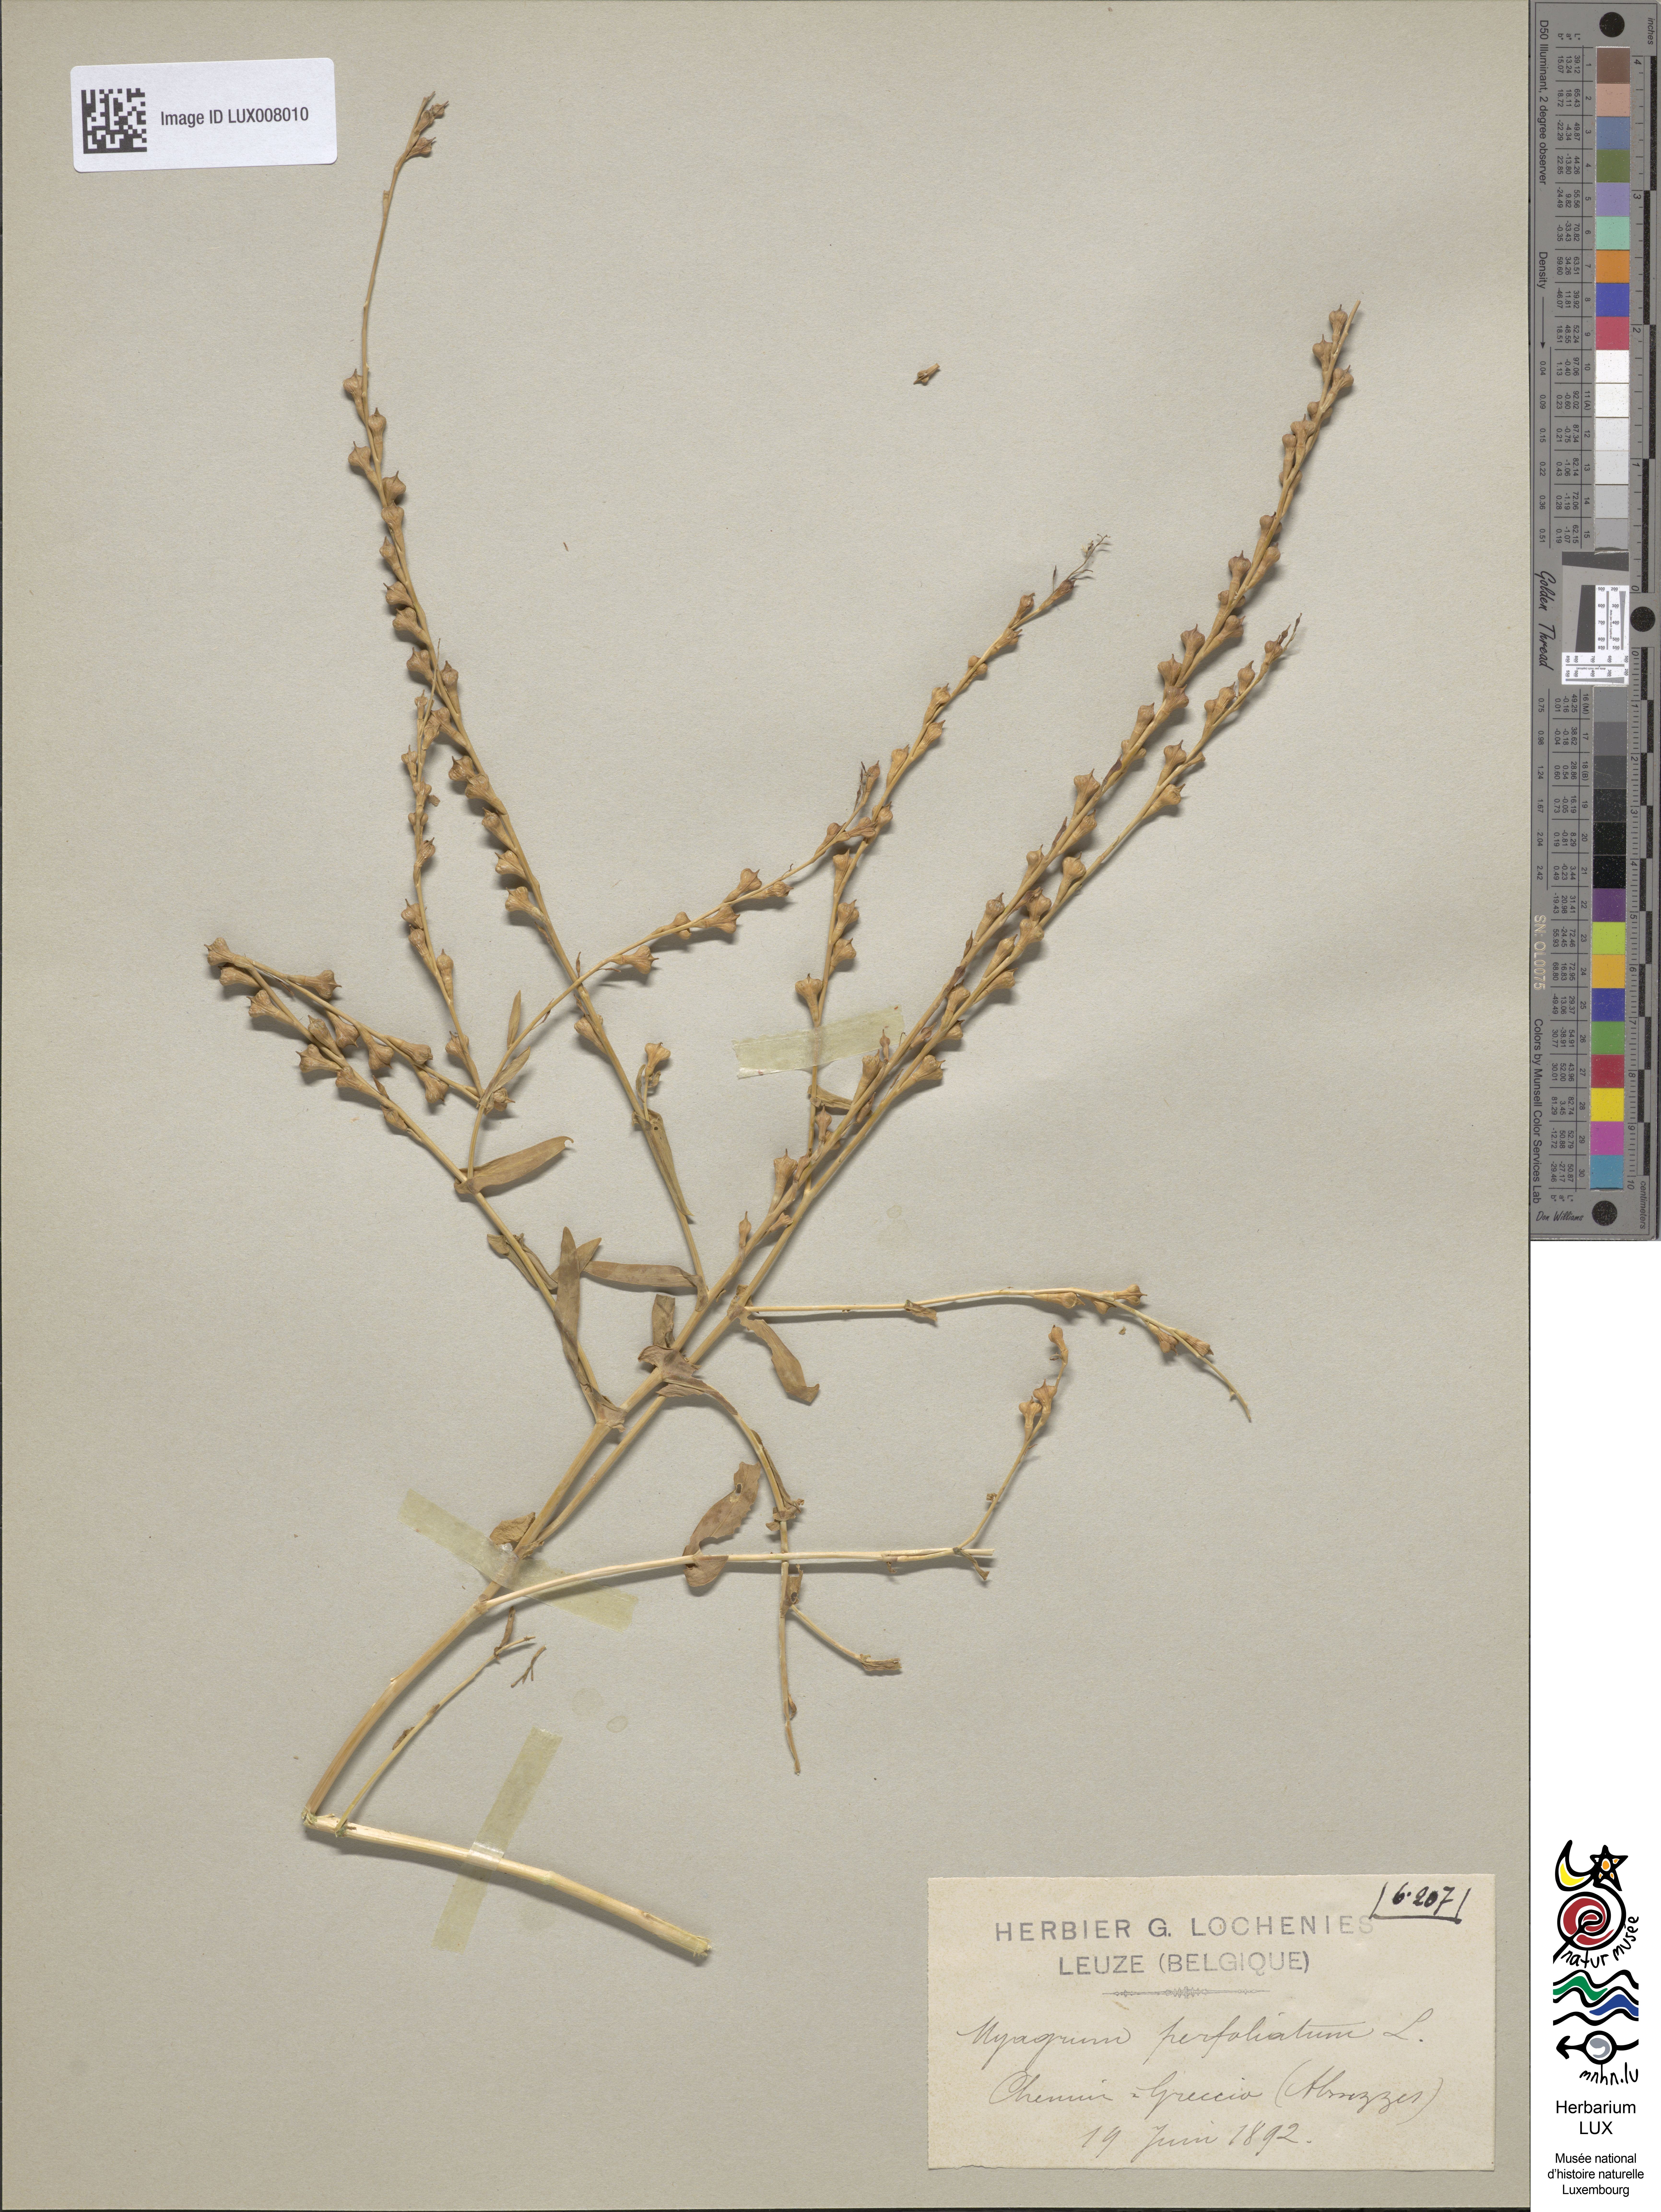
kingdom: Plantae
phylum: Tracheophyta
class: Magnoliopsida
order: Brassicales
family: Brassicaceae
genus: Myagrum
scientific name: Myagrum perfoliatum
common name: Mitre cress
